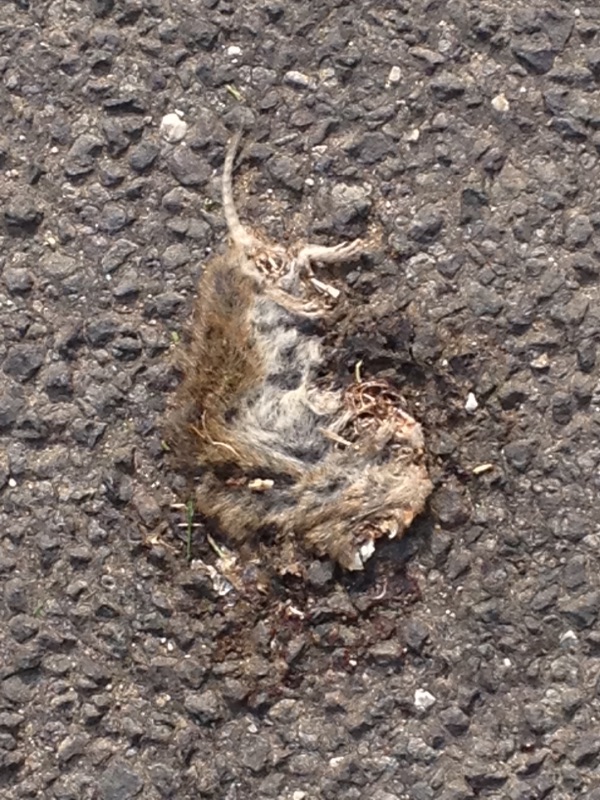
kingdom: Animalia
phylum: Chordata
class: Mammalia
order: Rodentia
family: Cricetidae
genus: Microtus
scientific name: Microtus
